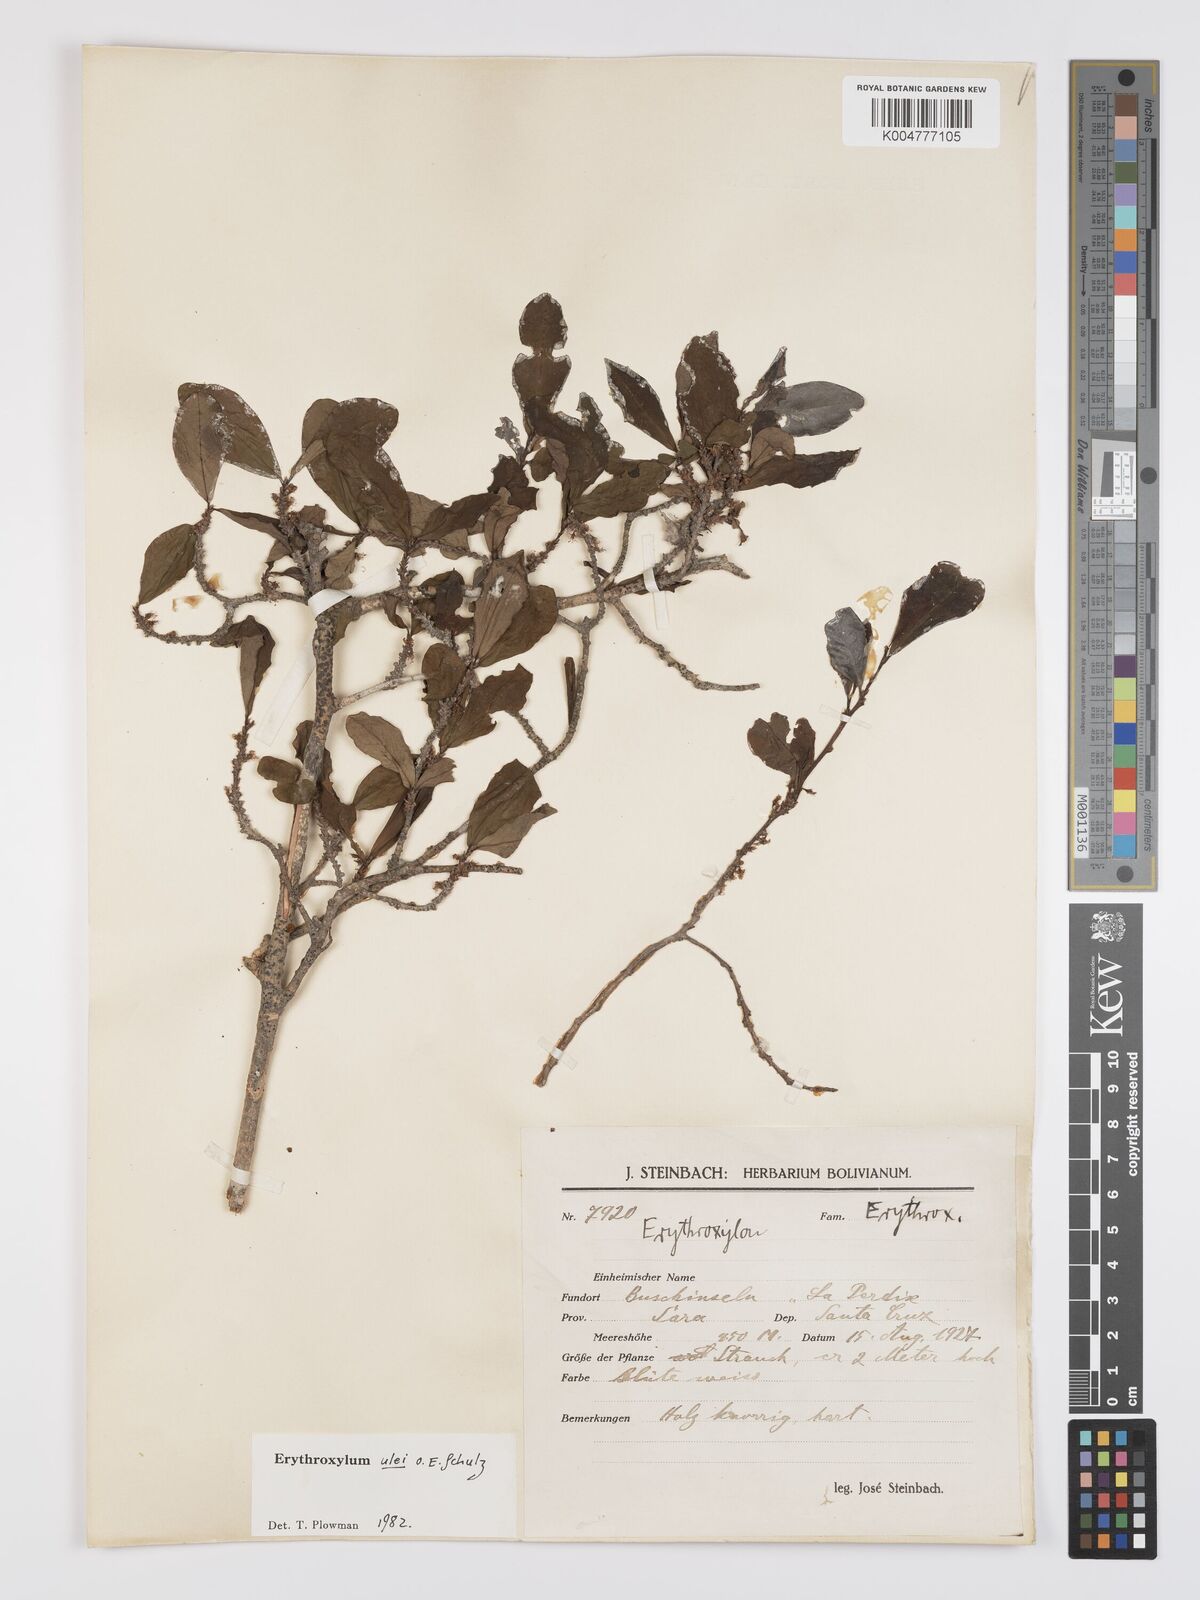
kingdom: Plantae
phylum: Tracheophyta
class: Magnoliopsida
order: Malpighiales
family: Erythroxylaceae
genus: Erythroxylum
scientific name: Erythroxylum ulei
